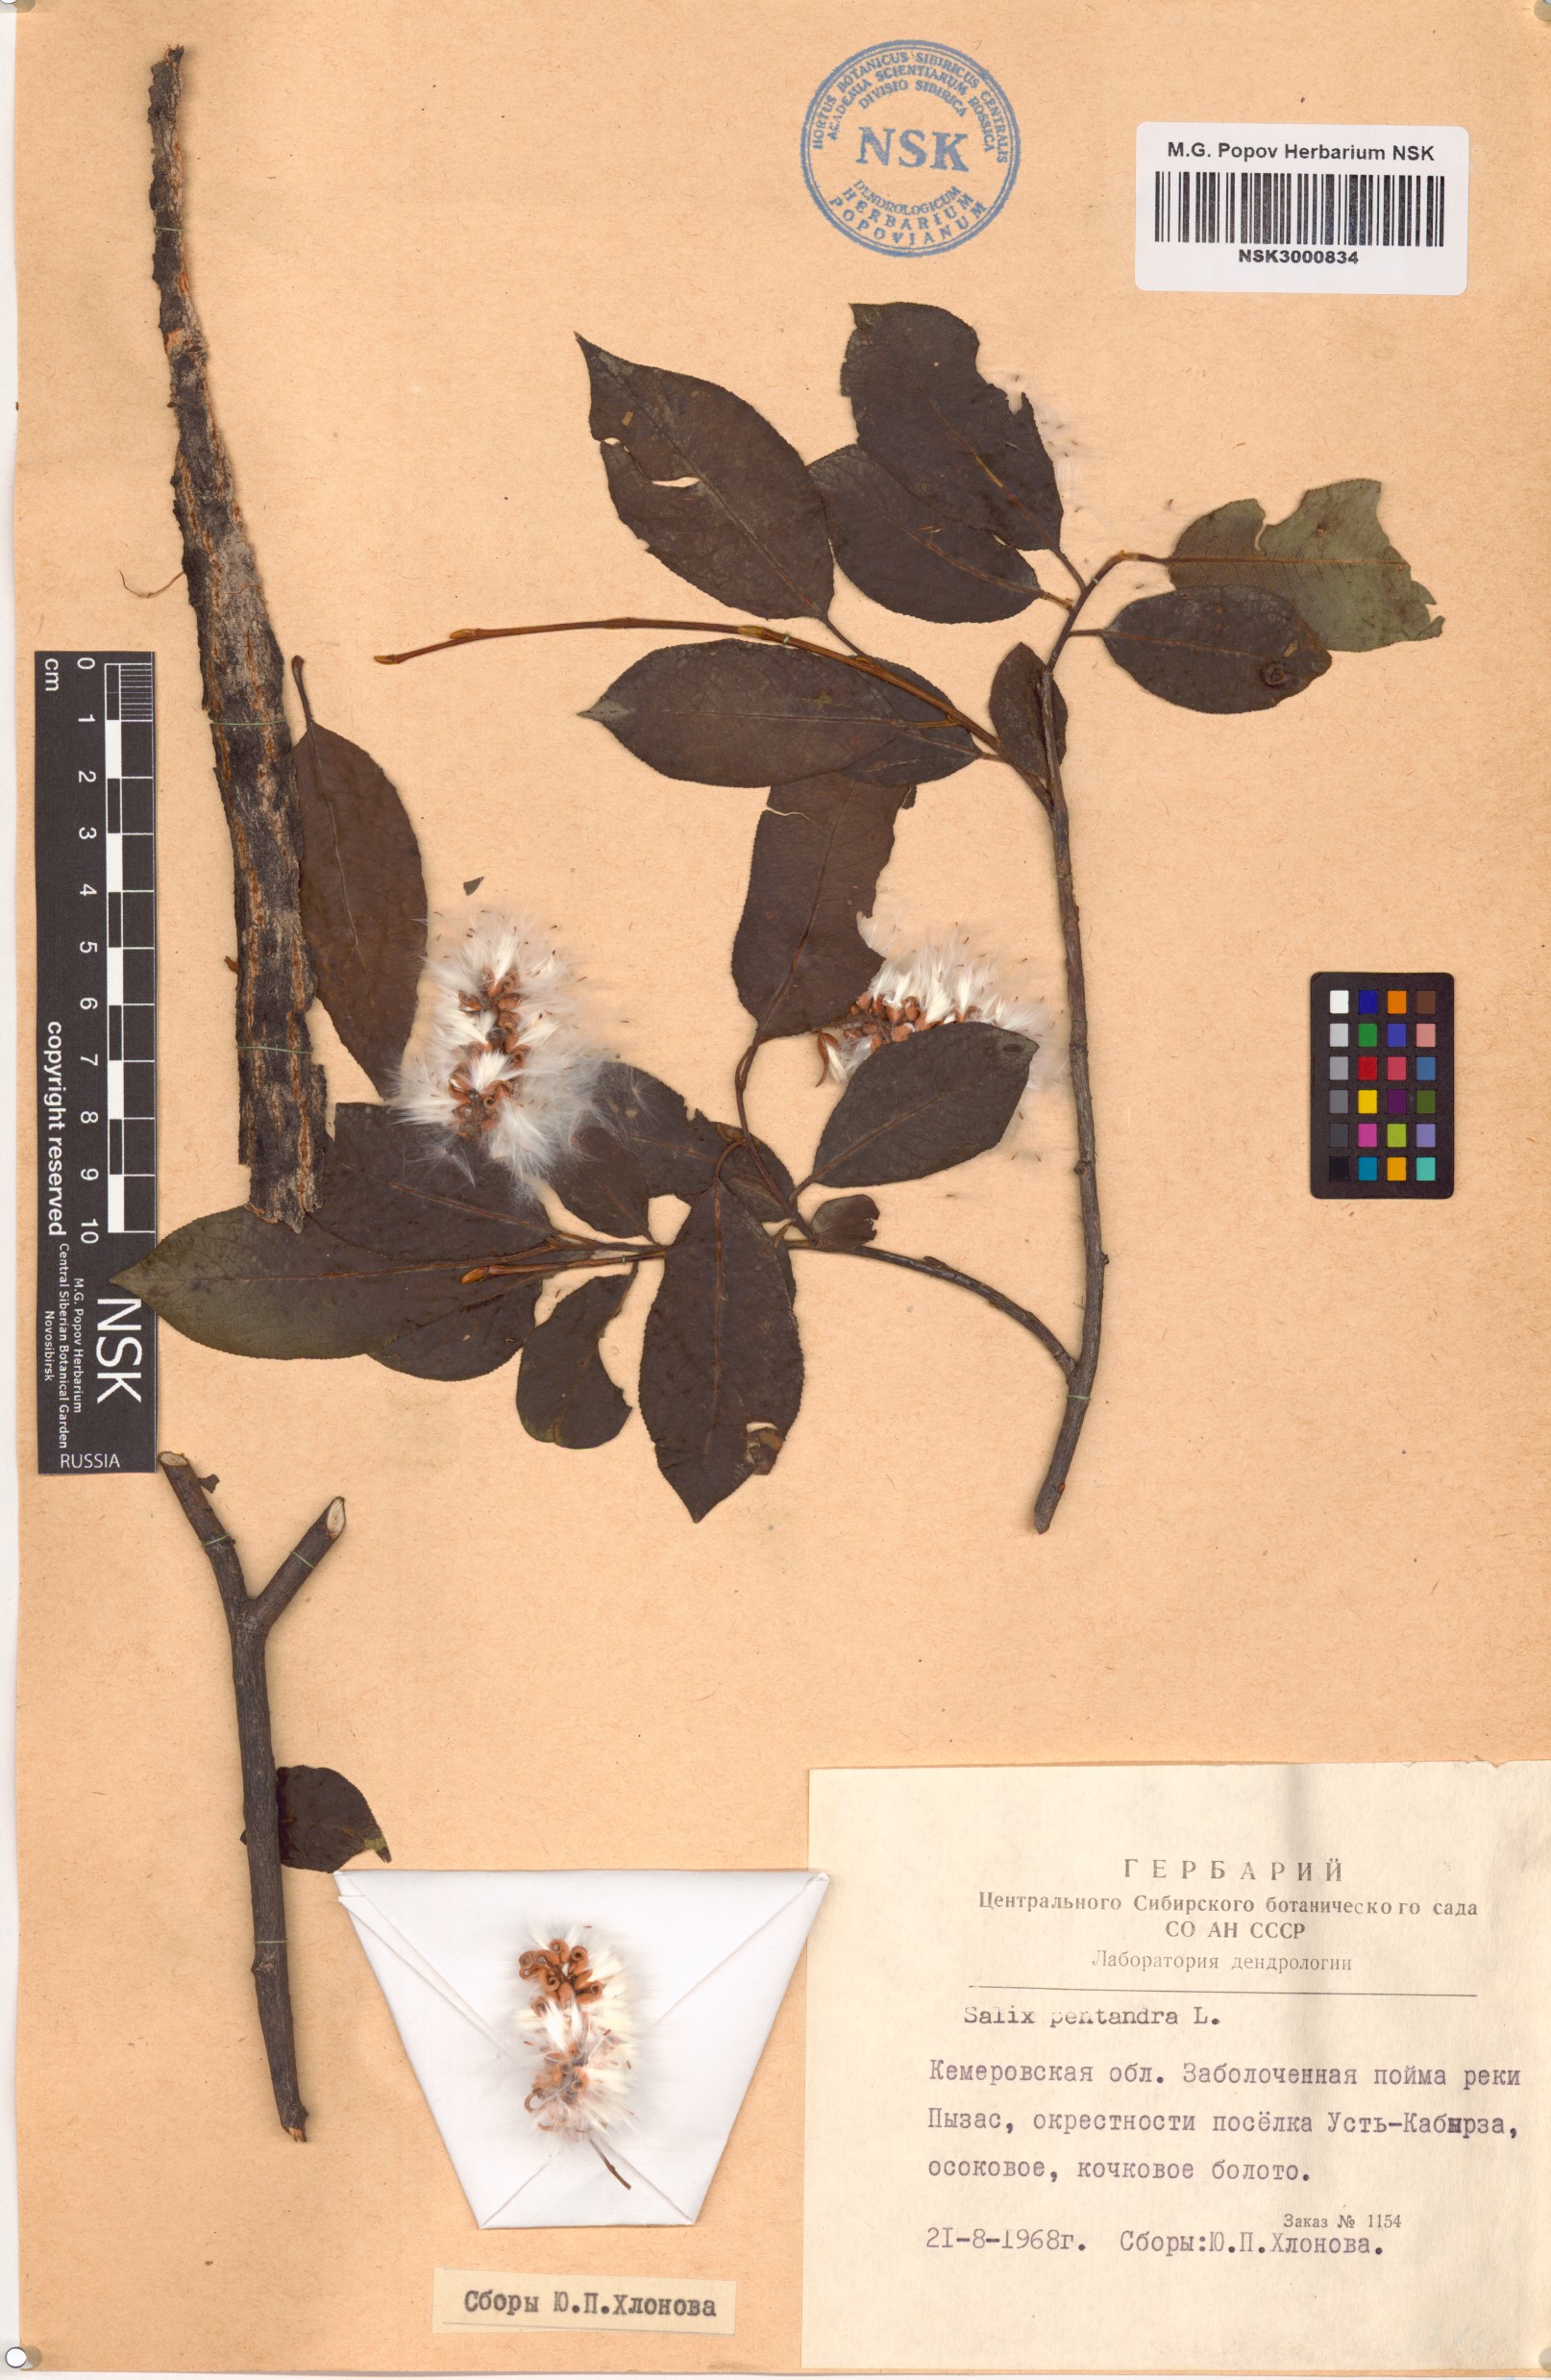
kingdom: Plantae
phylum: Tracheophyta
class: Magnoliopsida
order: Malpighiales
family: Salicaceae
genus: Salix
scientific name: Salix pentandra
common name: Bay willow
